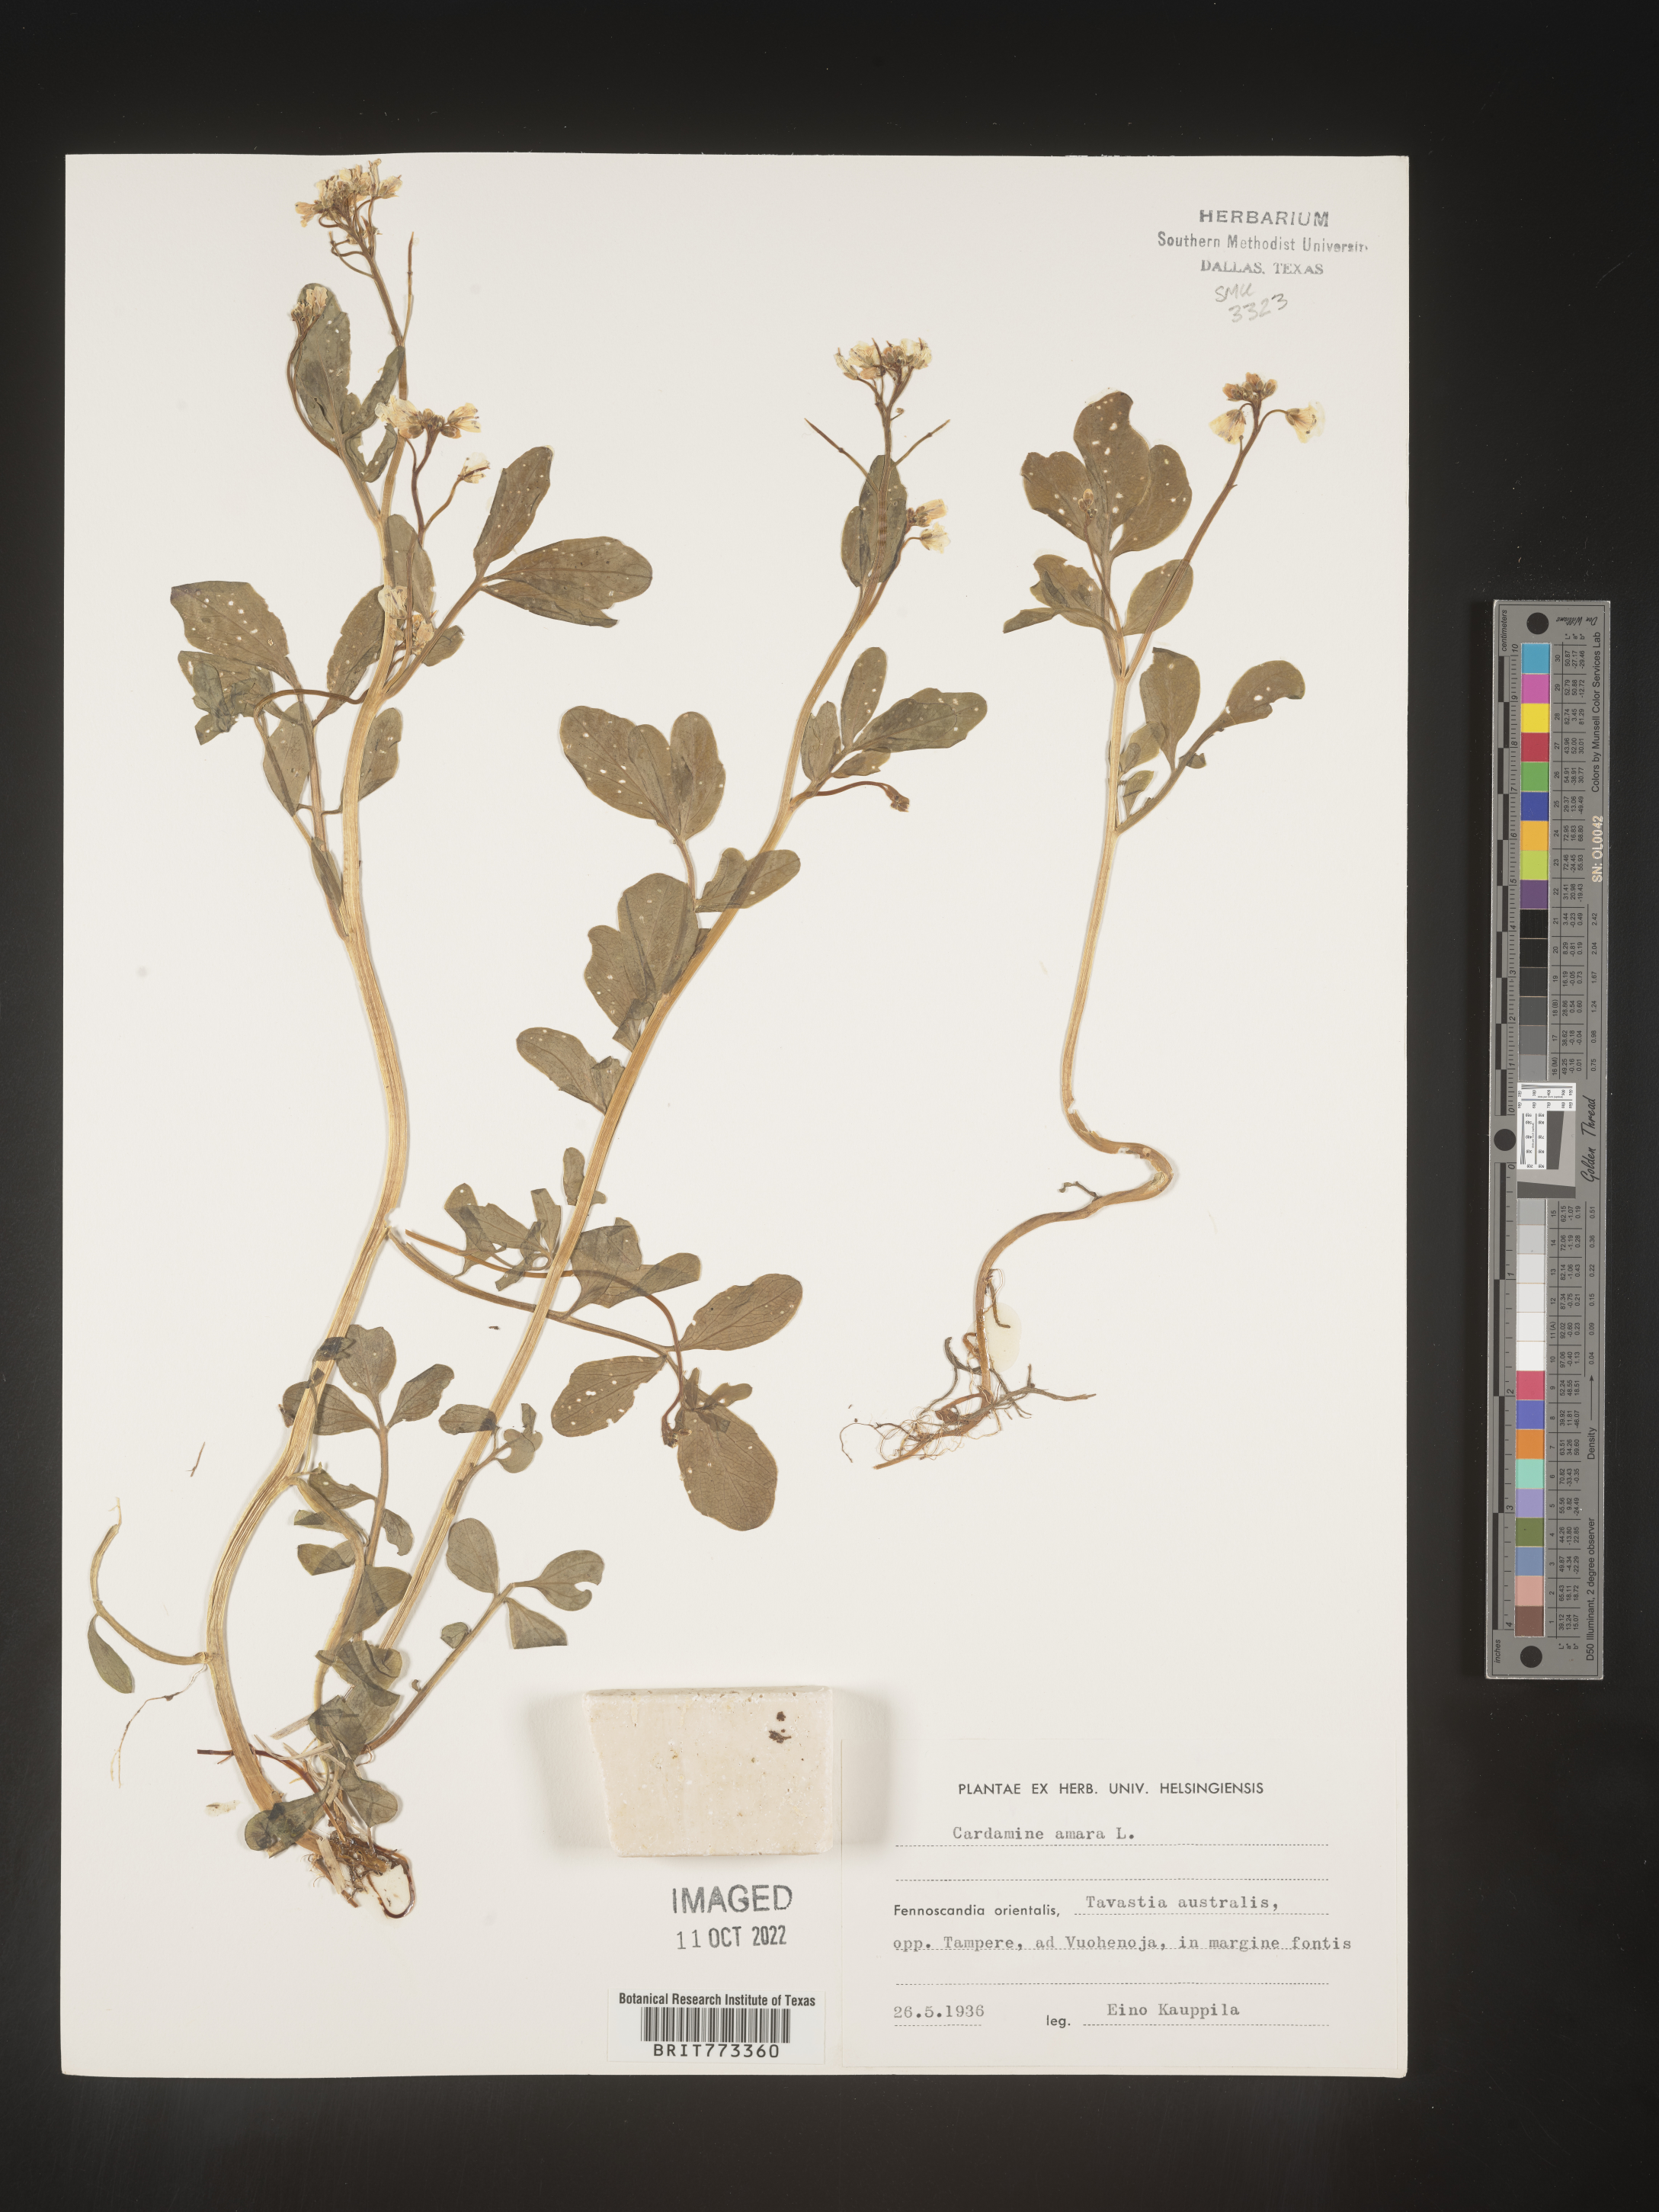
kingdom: Plantae
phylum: Tracheophyta
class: Magnoliopsida
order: Brassicales
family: Brassicaceae
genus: Cardamine
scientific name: Cardamine
